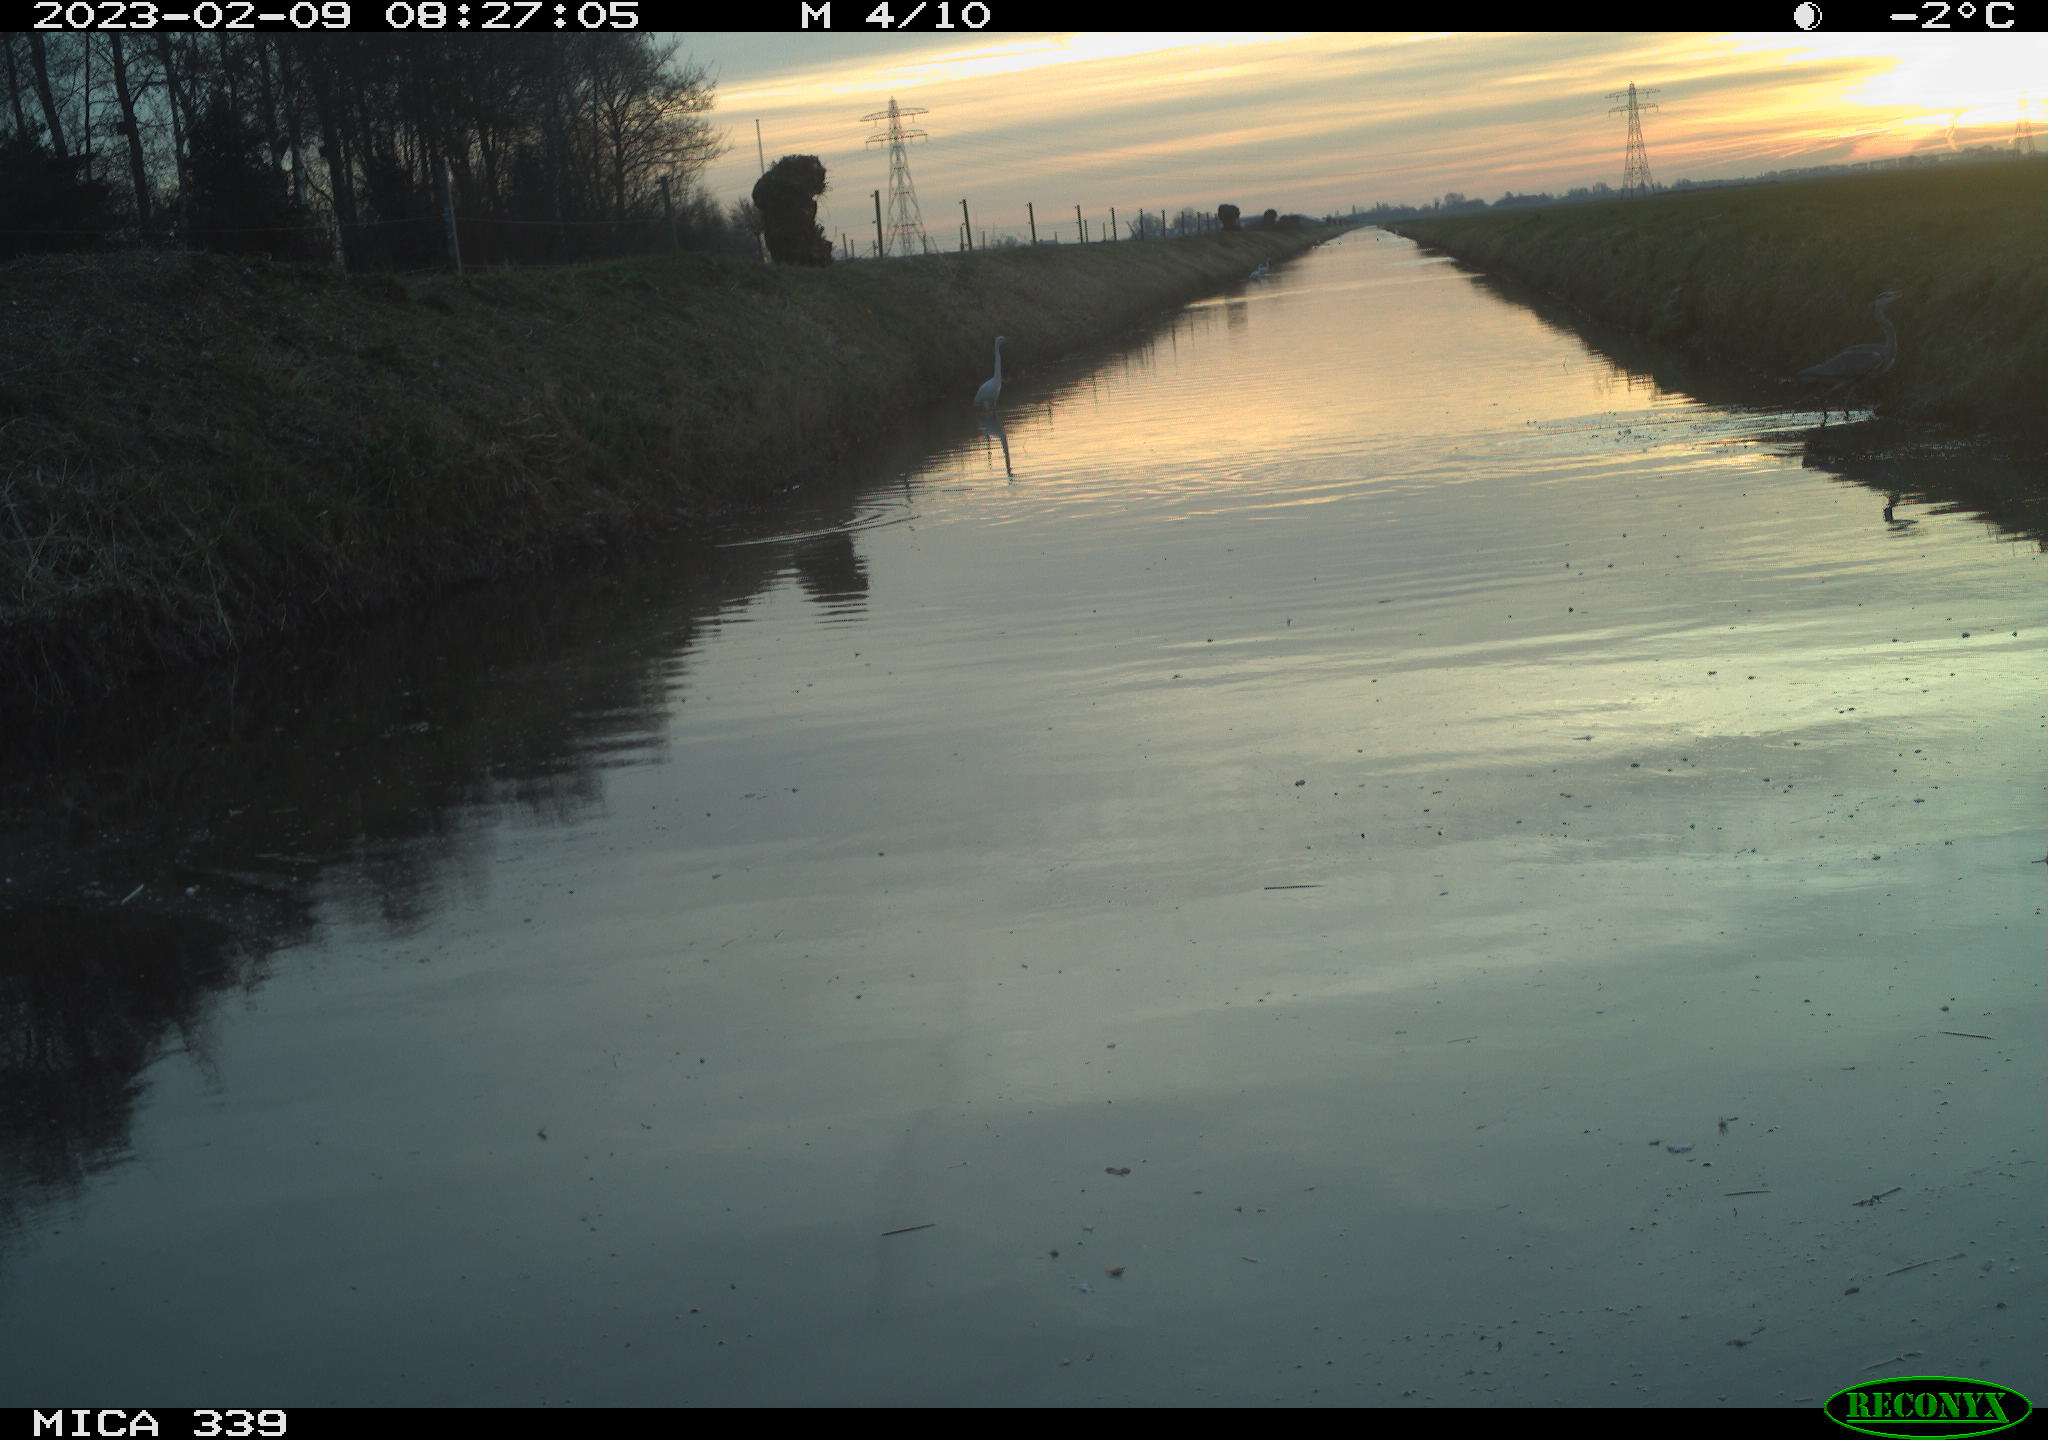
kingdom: Animalia
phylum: Chordata
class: Aves
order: Pelecaniformes
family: Ardeidae
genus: Ardea
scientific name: Ardea cinerea
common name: Grey heron
